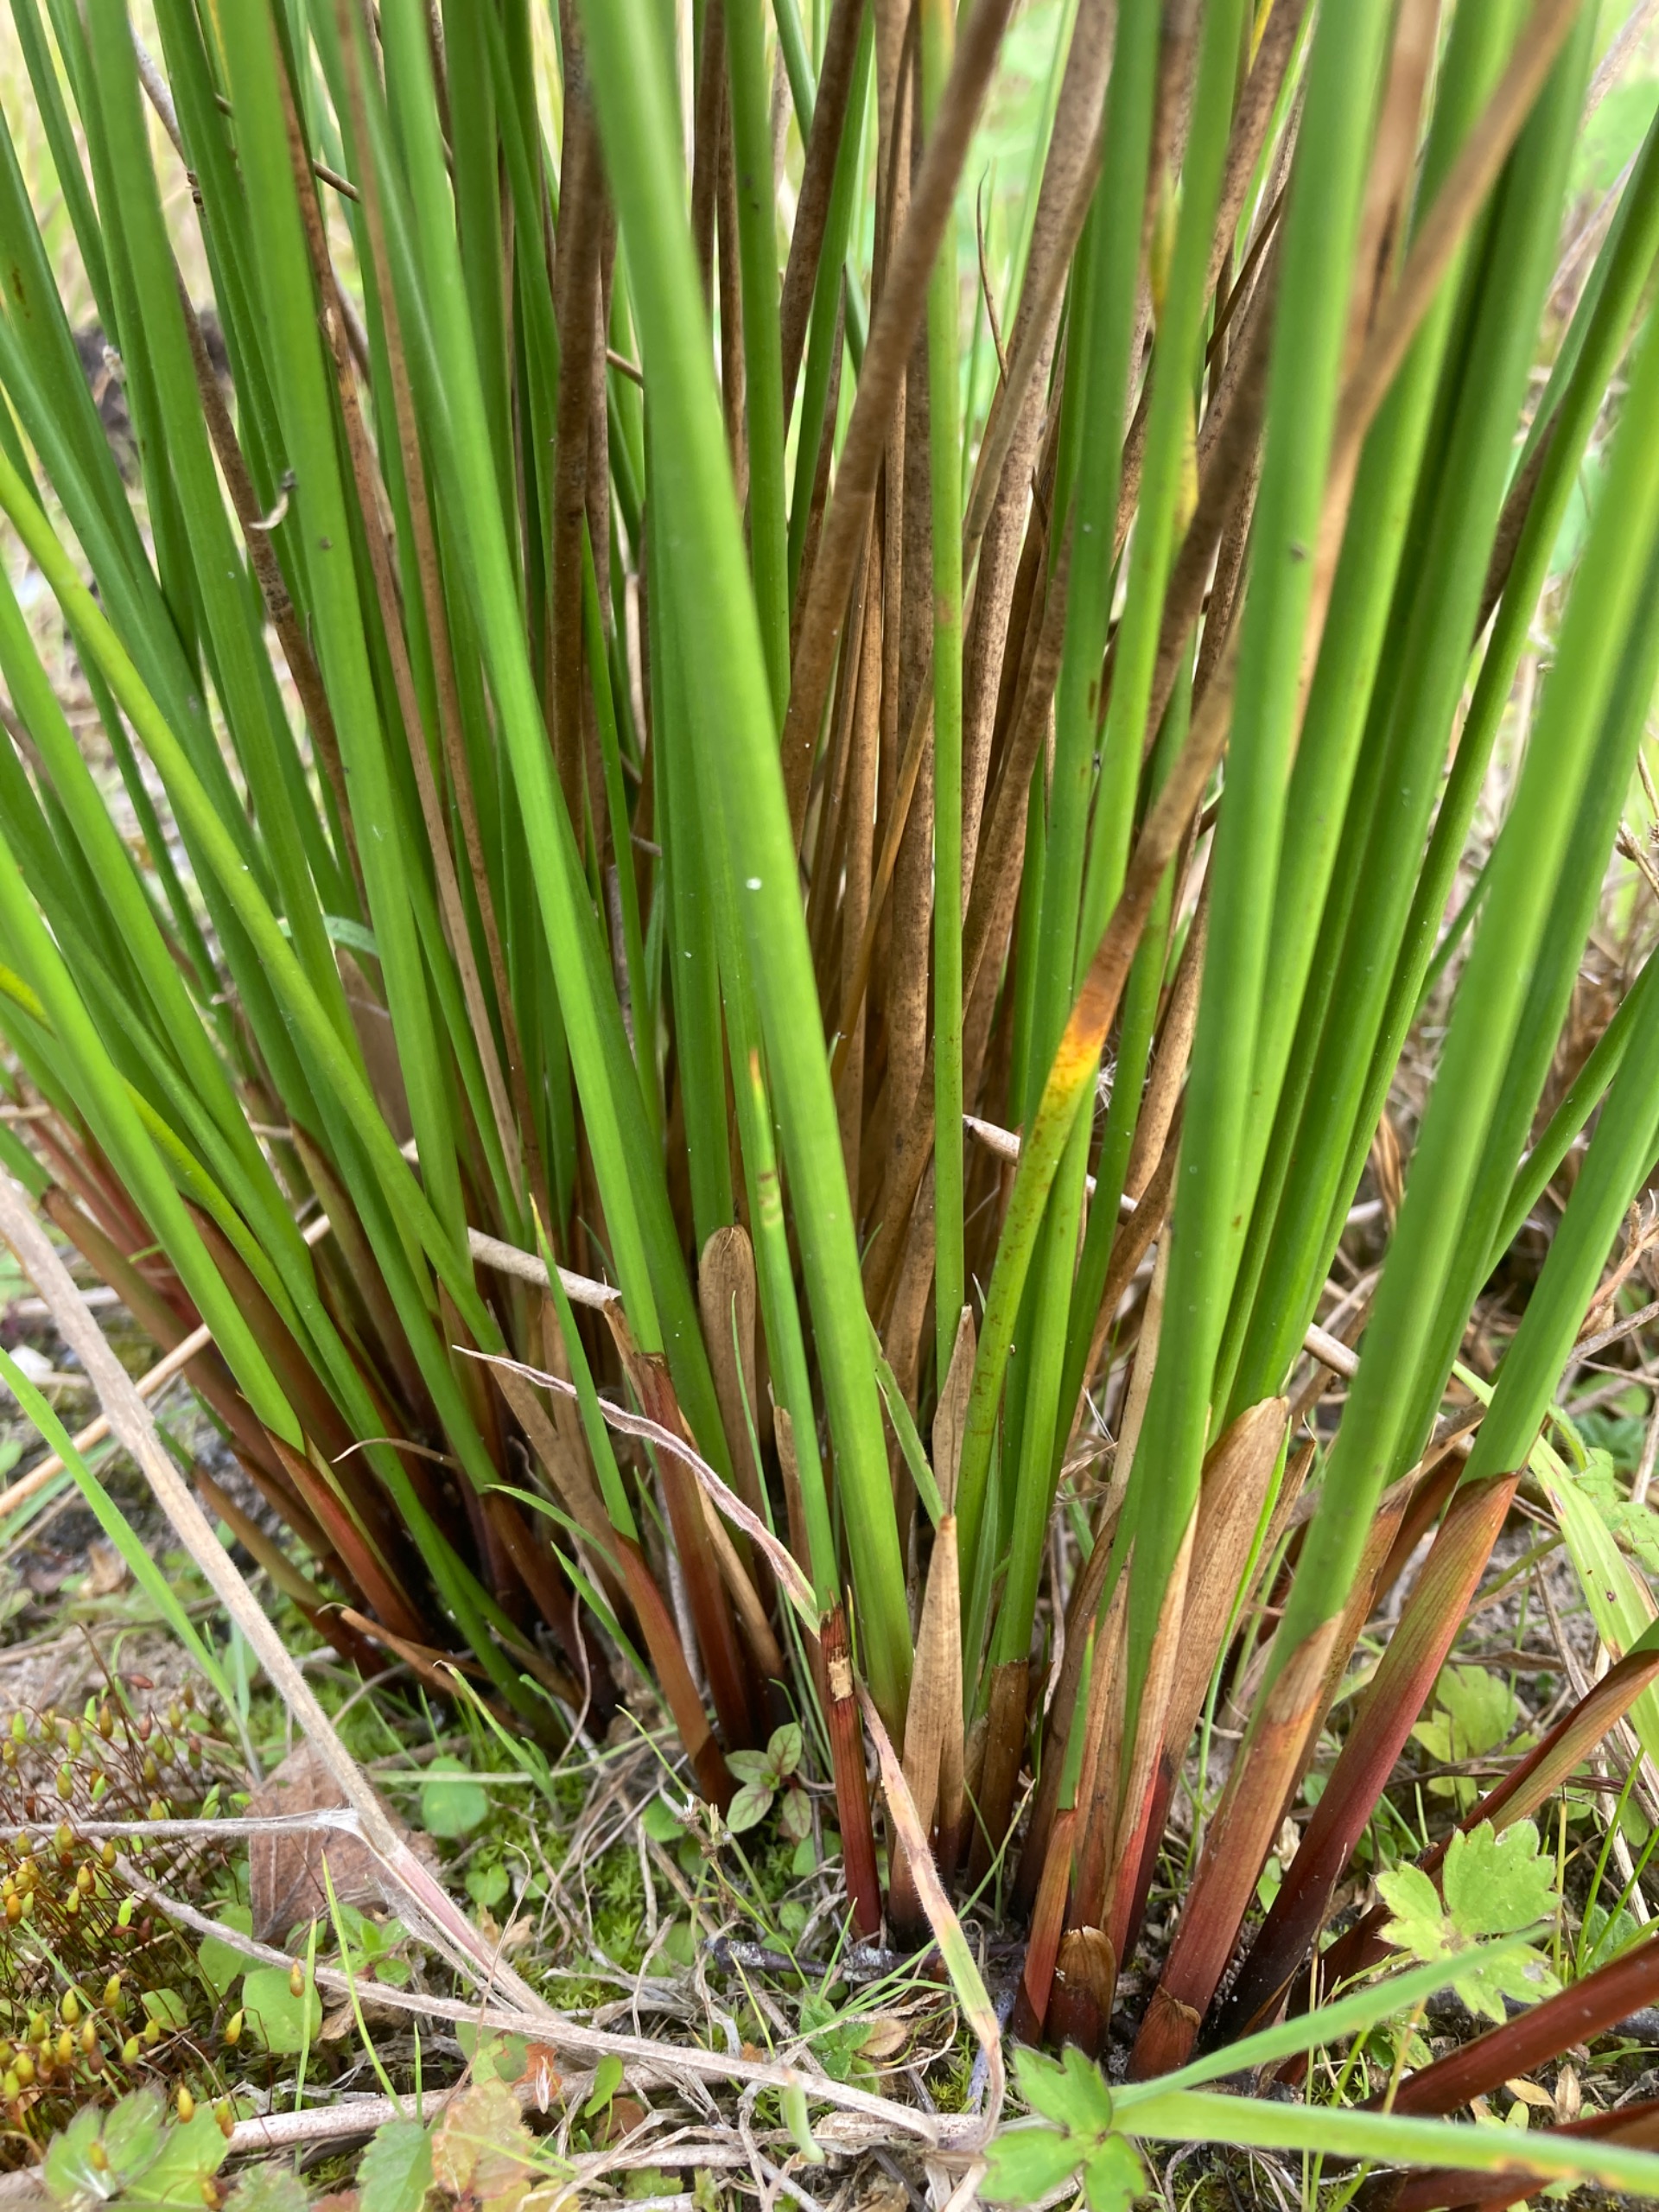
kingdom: Plantae
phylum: Tracheophyta
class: Liliopsida
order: Poales
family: Juncaceae
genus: Juncus
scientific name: Juncus effusus
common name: Lyse-siv
